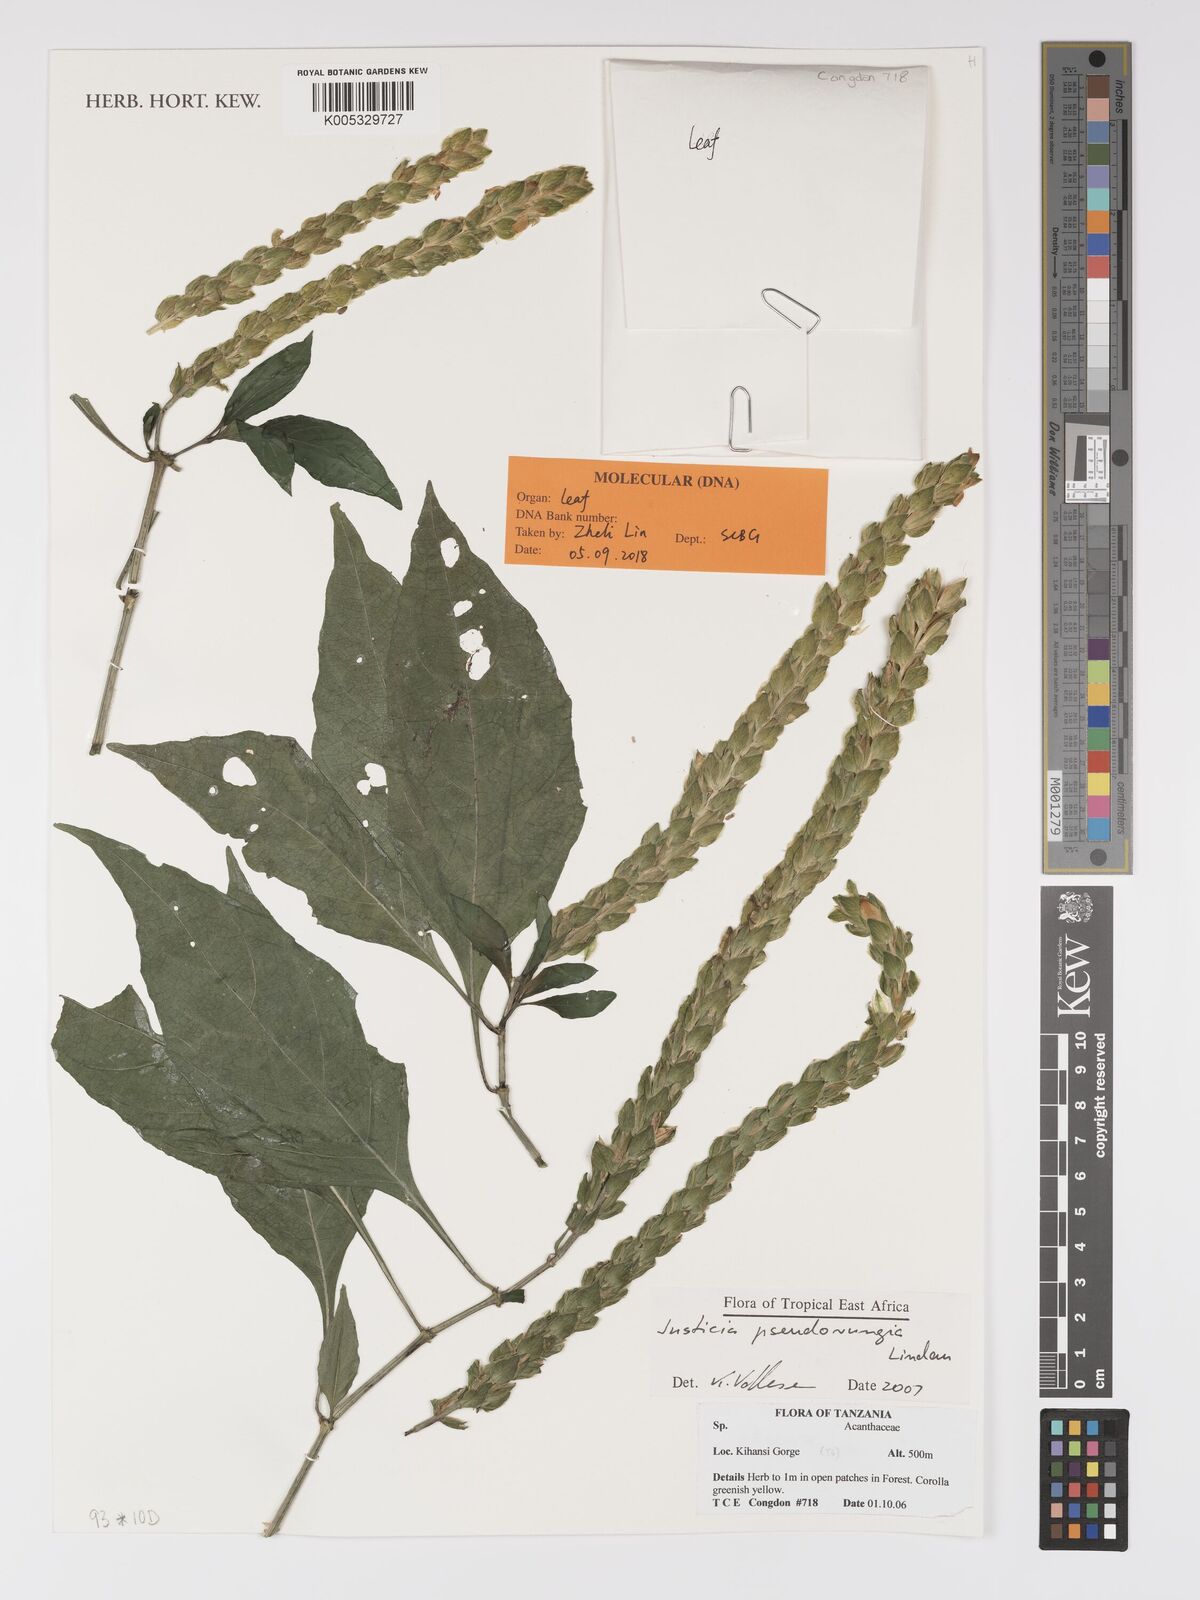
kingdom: Plantae
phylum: Tracheophyta
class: Magnoliopsida
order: Lamiales
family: Acanthaceae
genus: Justicia
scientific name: Justicia pseudorungia
